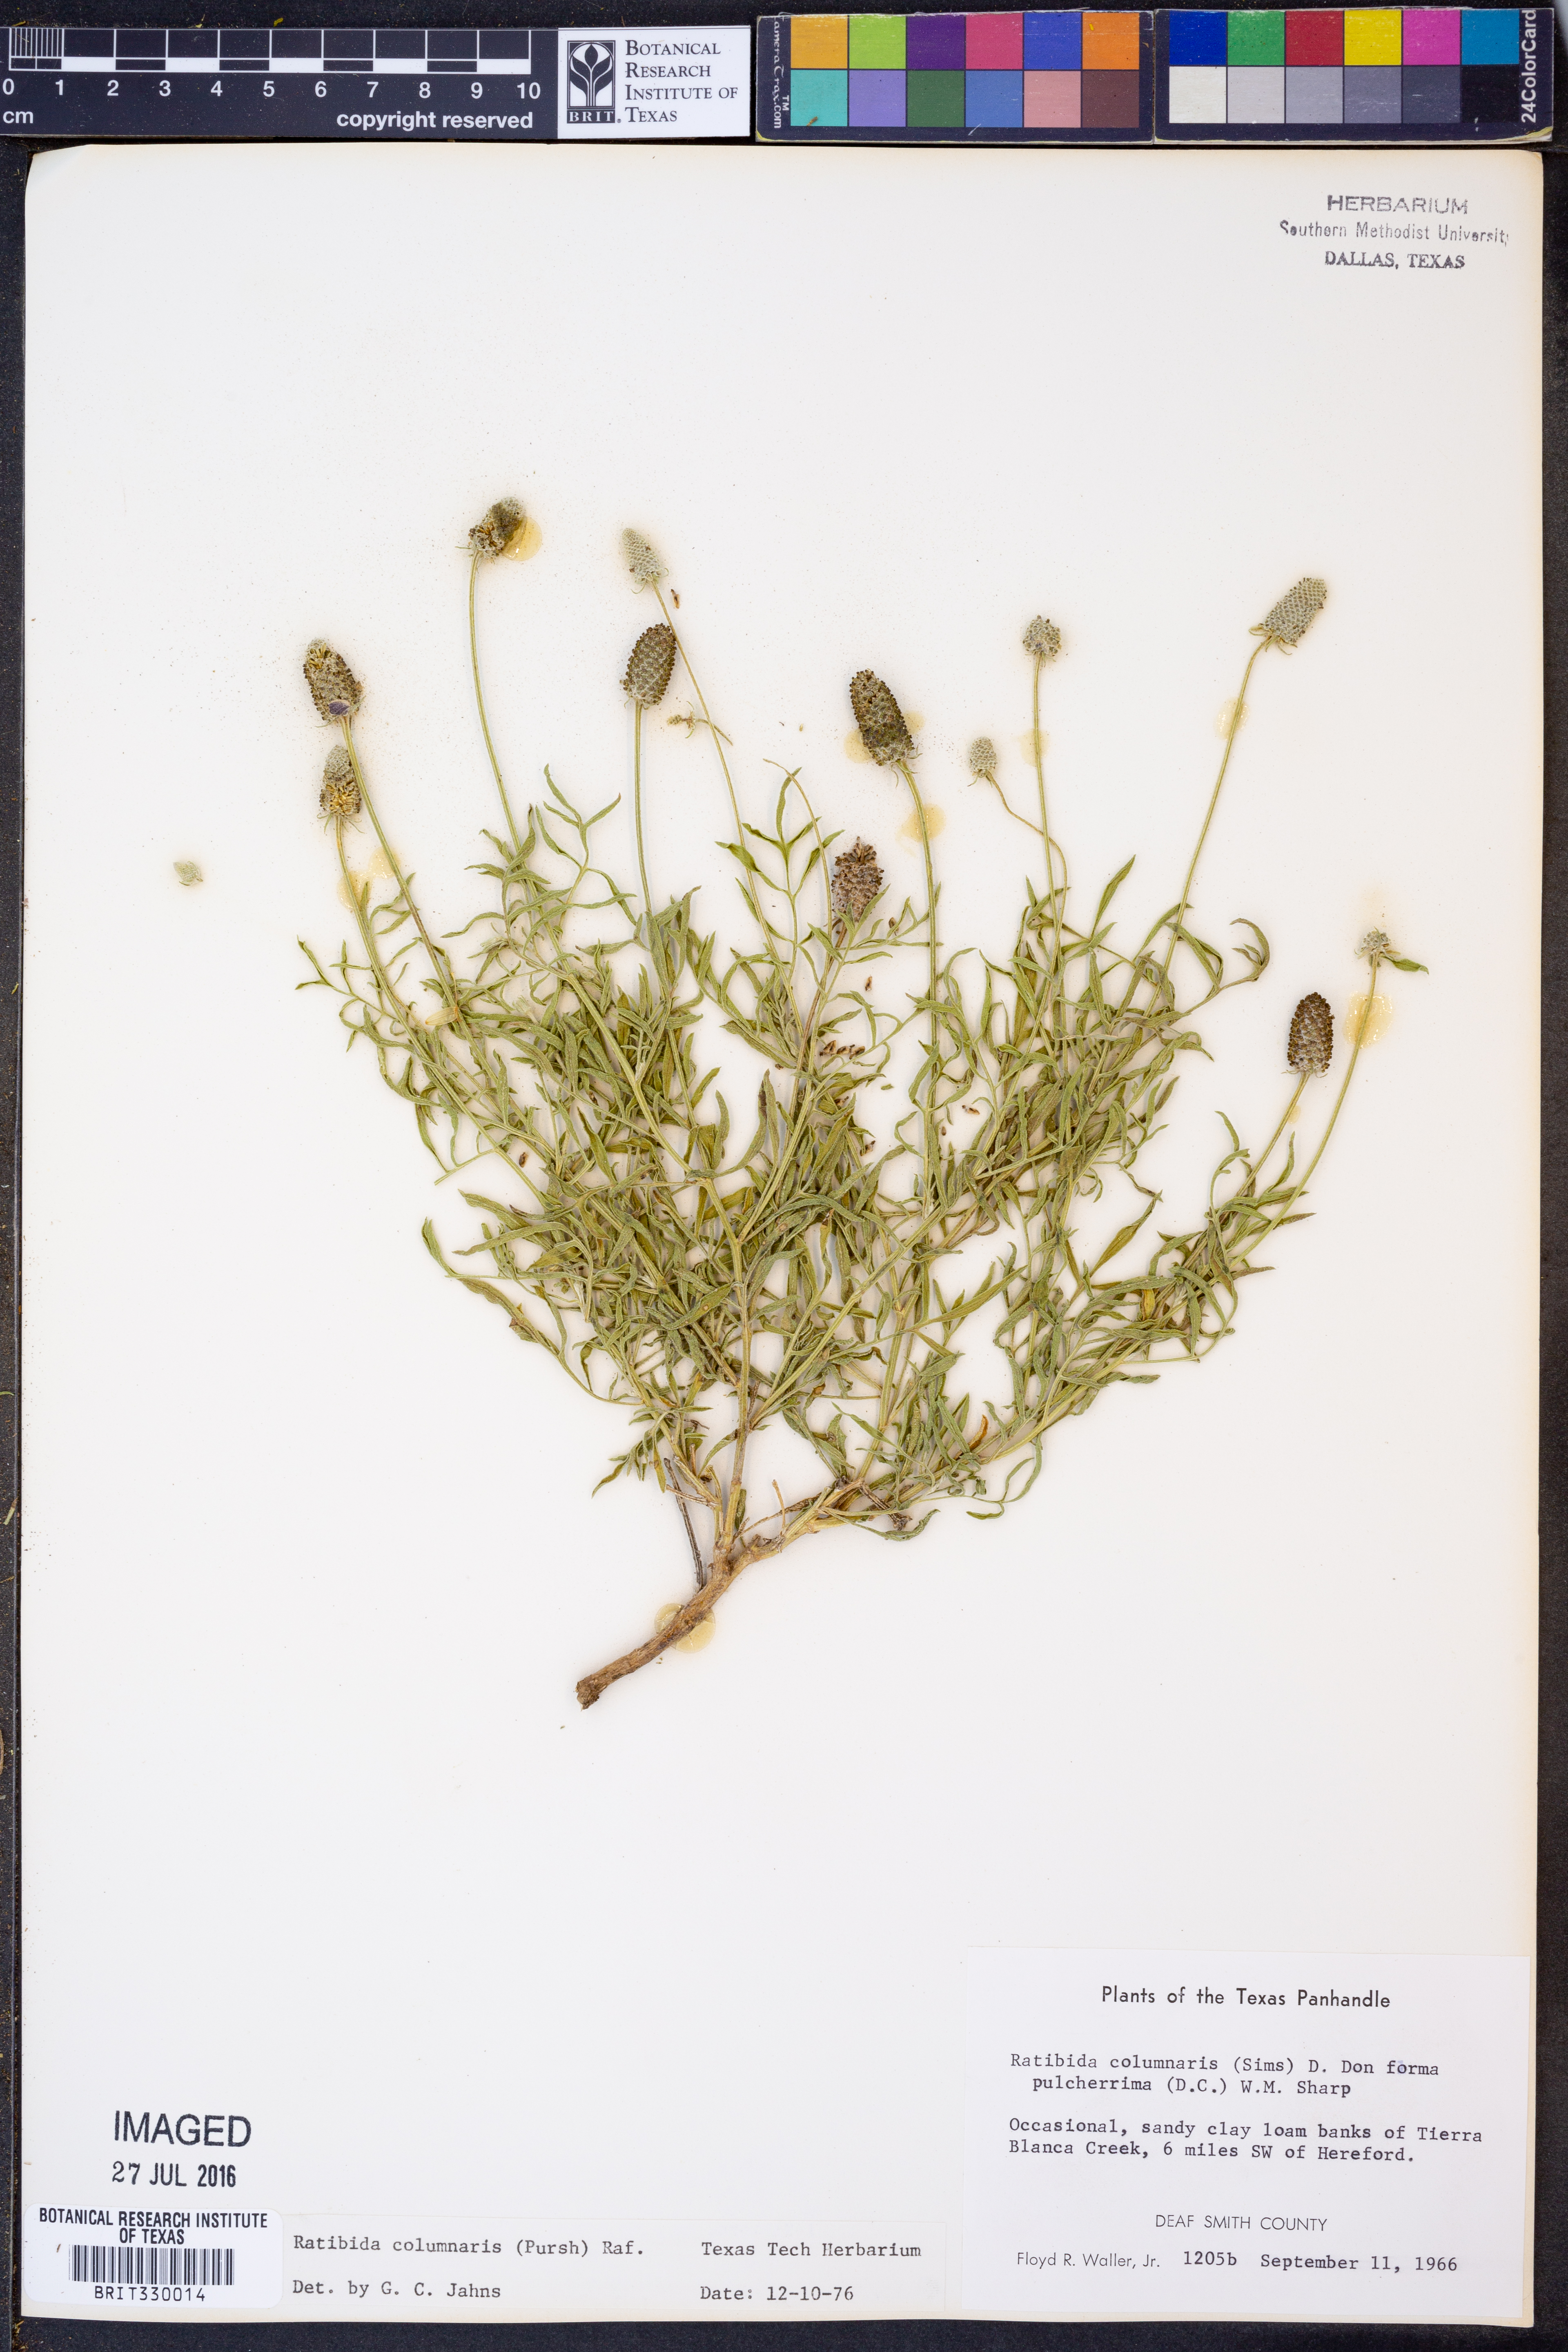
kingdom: Plantae
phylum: Tracheophyta
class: Magnoliopsida
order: Asterales
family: Asteraceae
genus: Ratibida
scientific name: Ratibida columnifera
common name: Prairie coneflower
